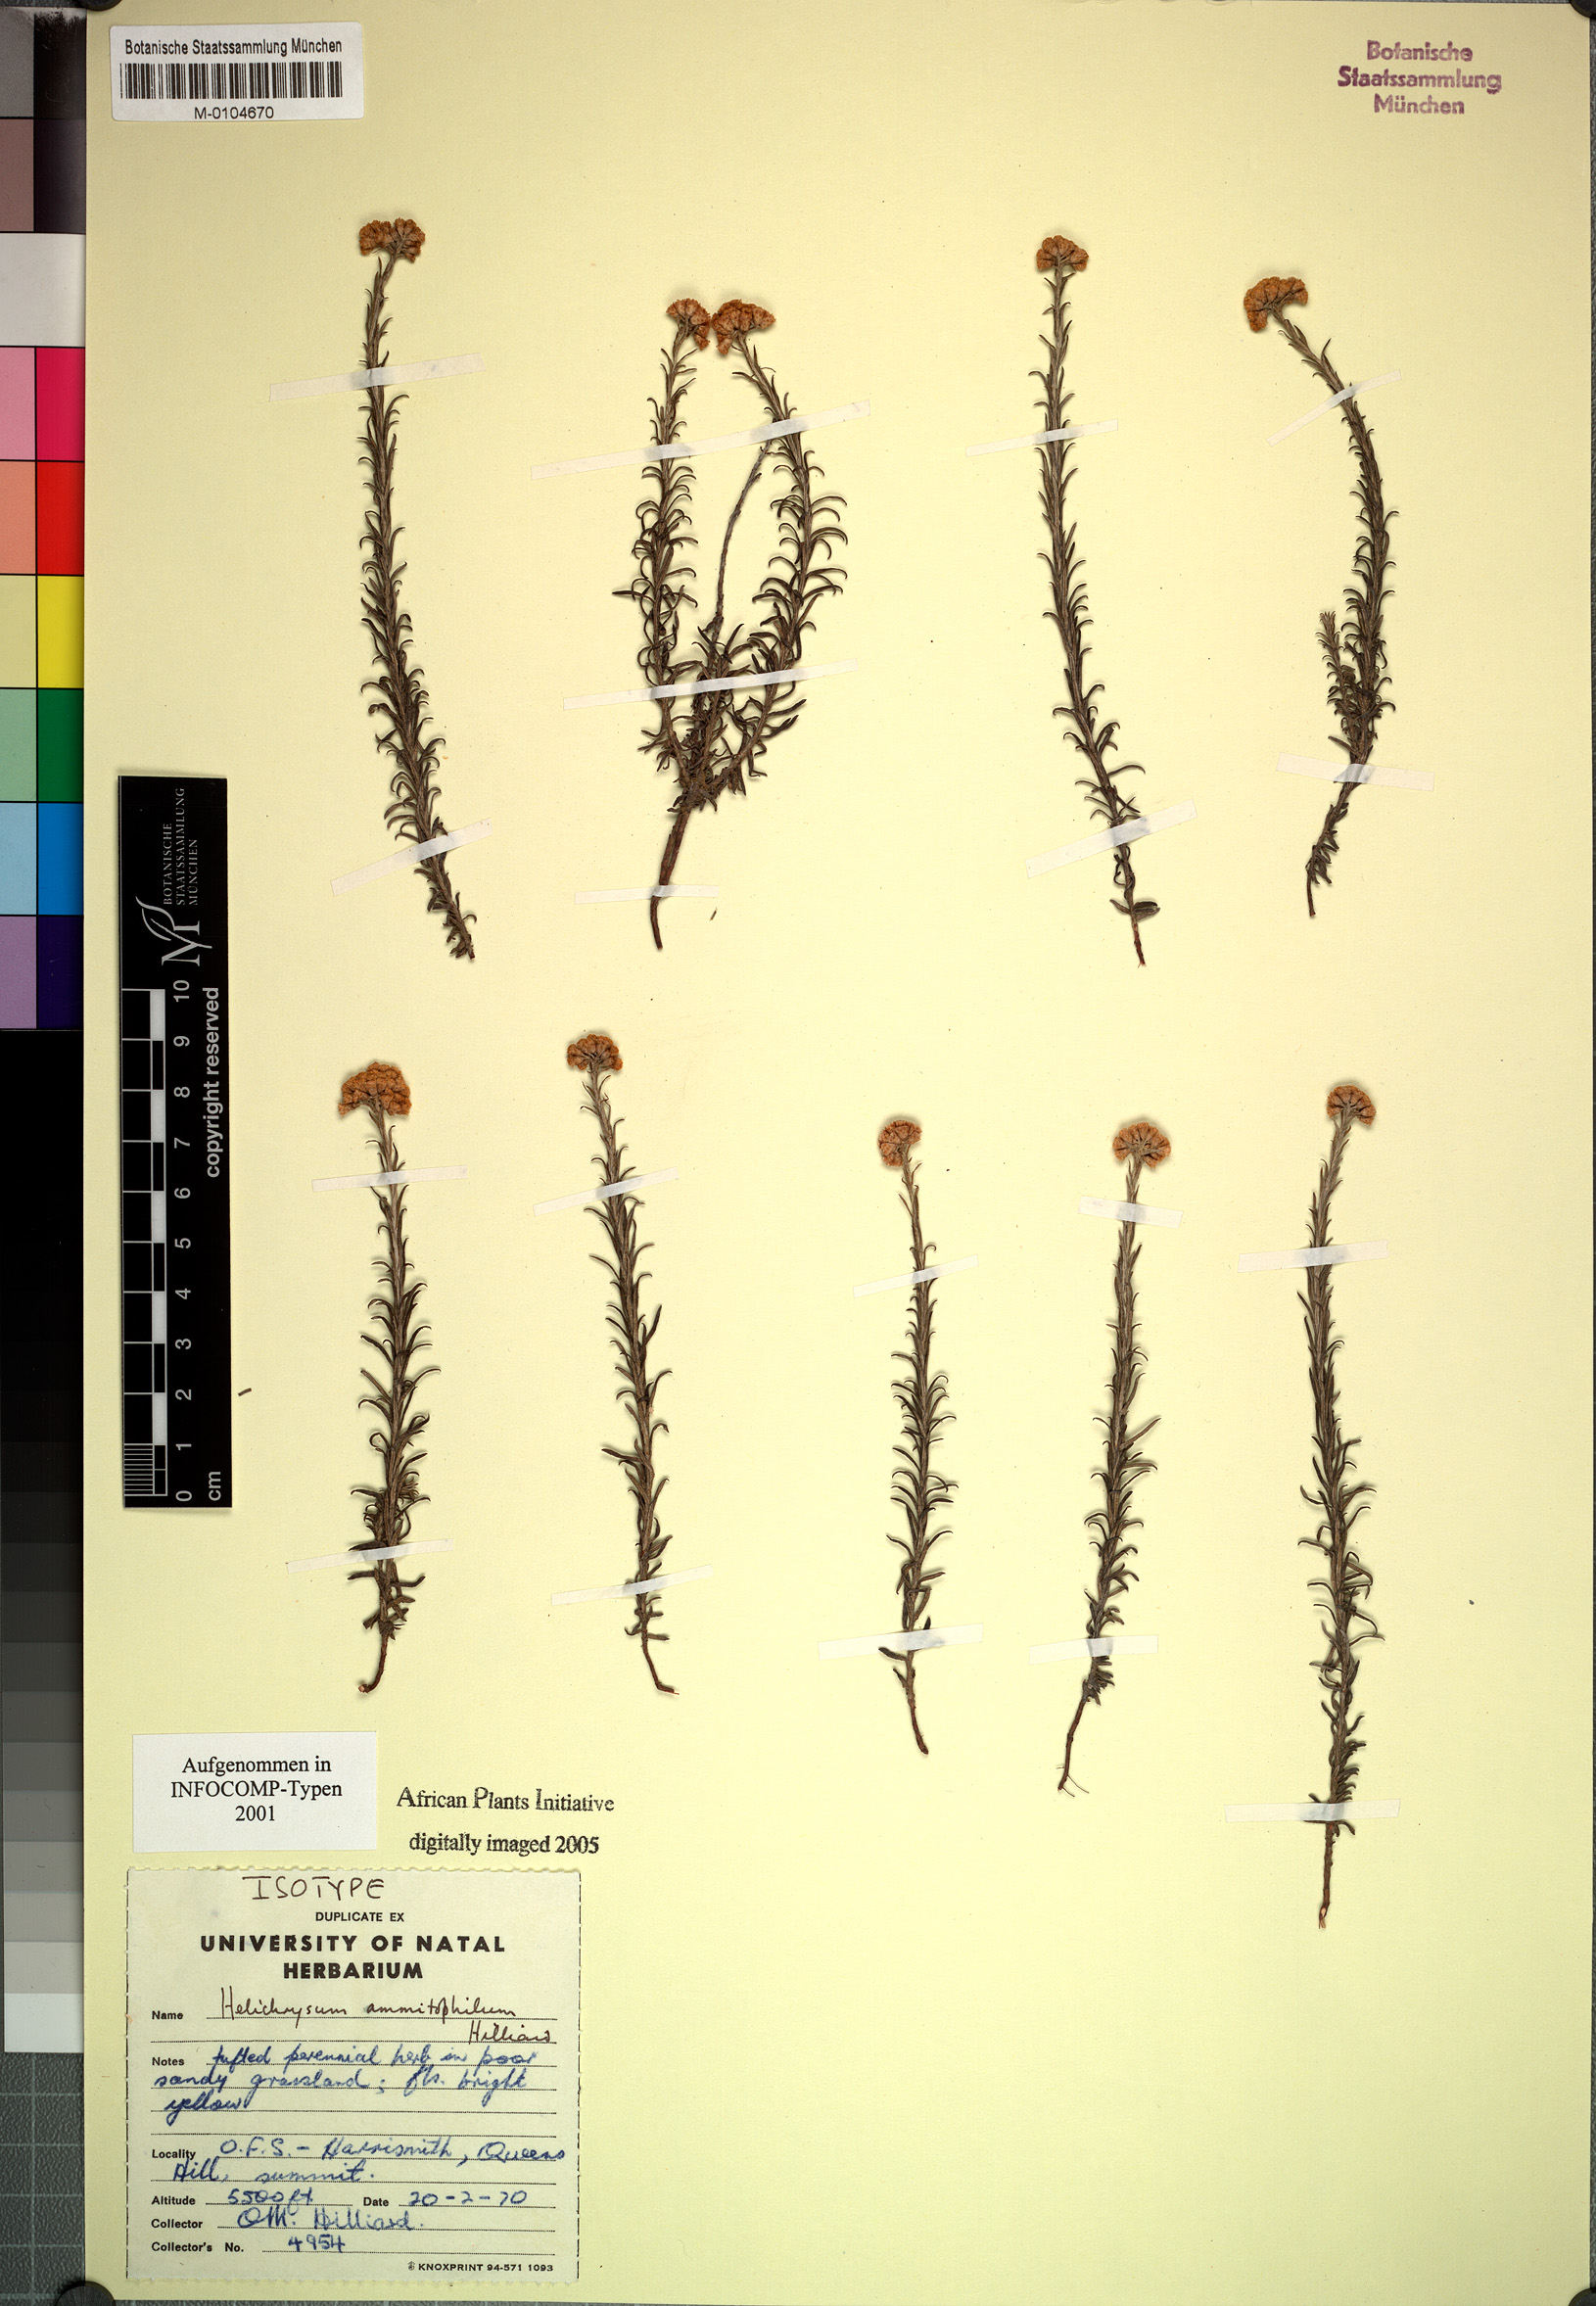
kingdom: Plantae
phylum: Tracheophyta
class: Magnoliopsida
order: Asterales
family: Asteraceae
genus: Helichrysum
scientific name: Helichrysum ammitophilum
